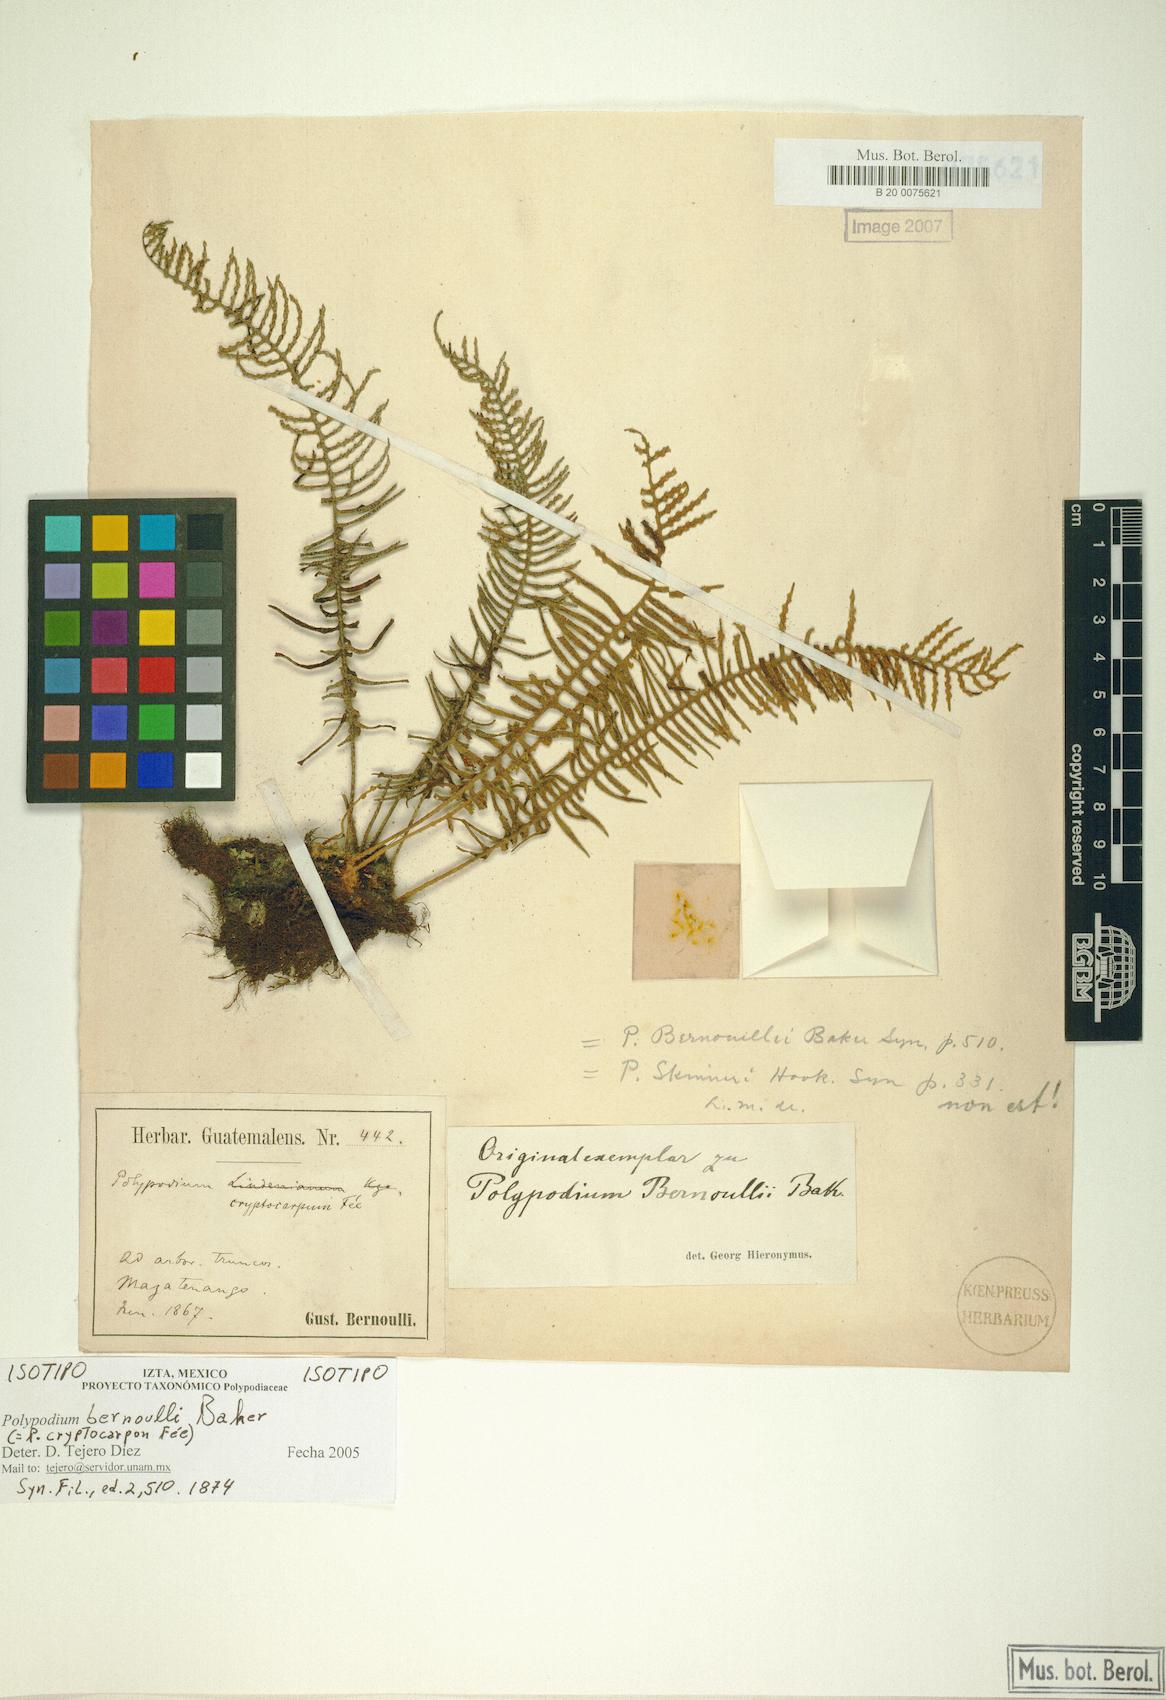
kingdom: Plantae
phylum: Tracheophyta
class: Polypodiopsida
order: Polypodiales
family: Polypodiaceae
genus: Pleopeltis
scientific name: Pleopeltis cryptocarpa
